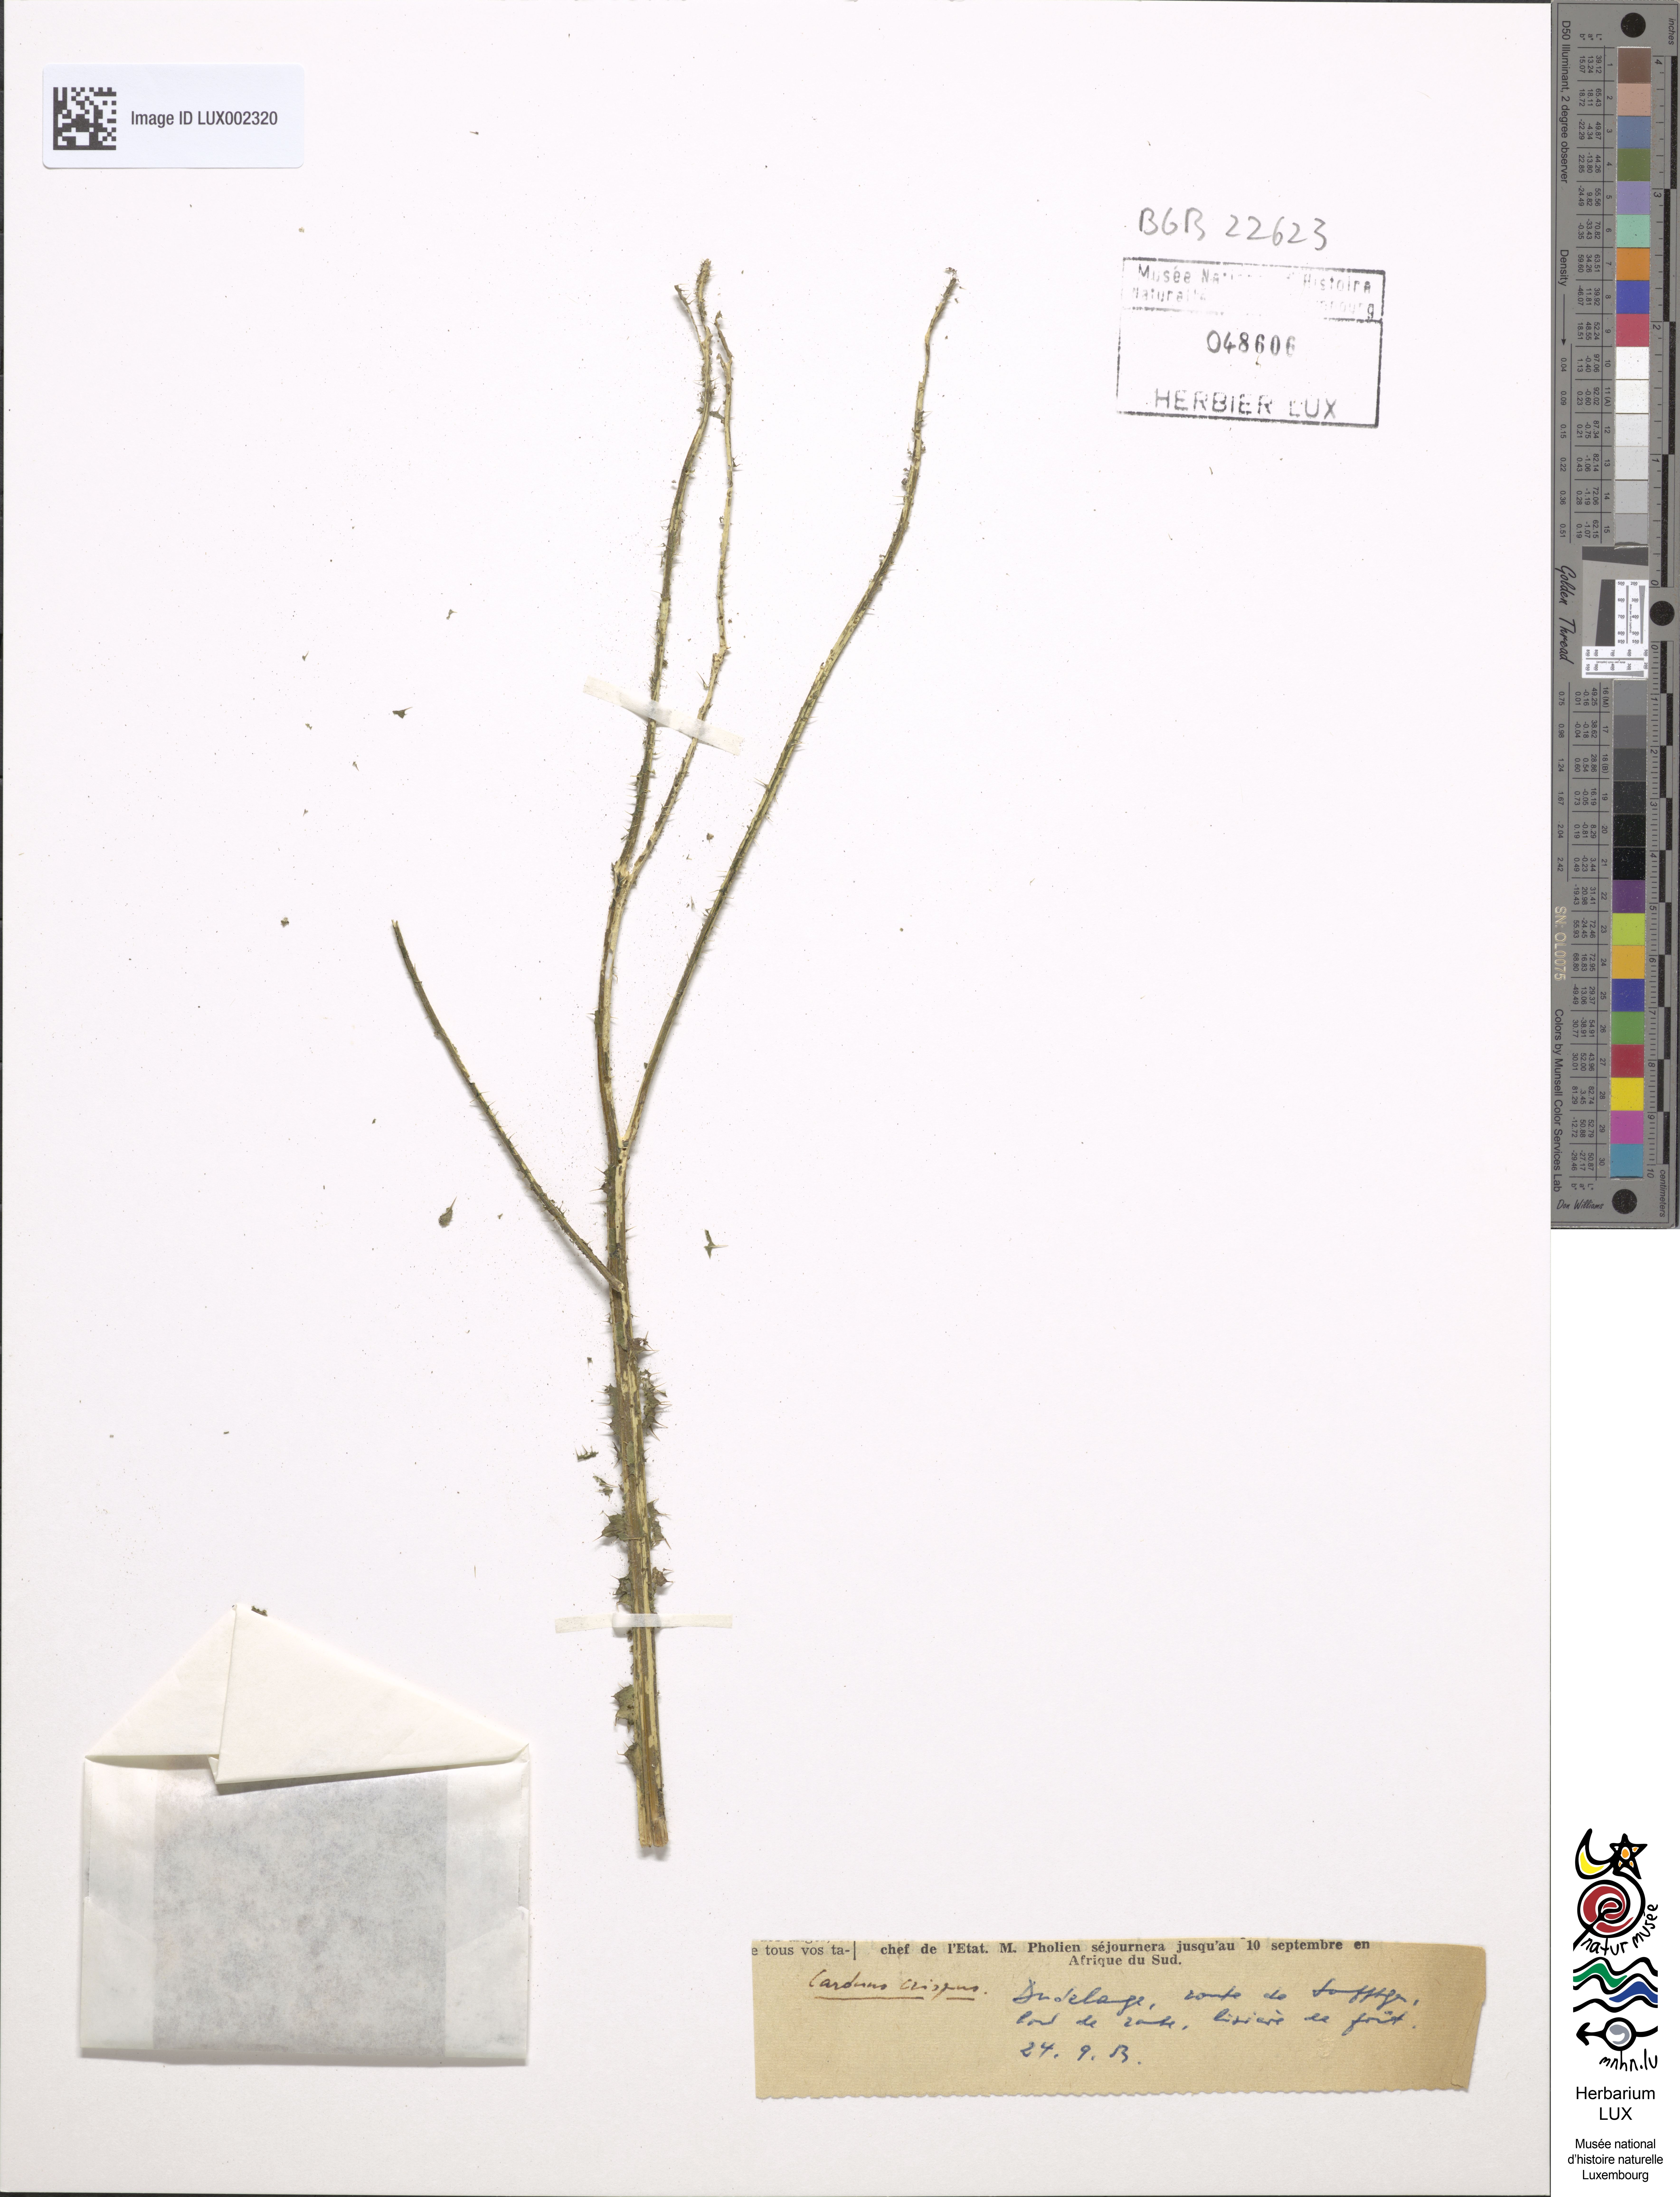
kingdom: Plantae
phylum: Tracheophyta
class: Magnoliopsida
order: Asterales
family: Asteraceae
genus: Carduus
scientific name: Carduus crispus
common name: Welted thistle
